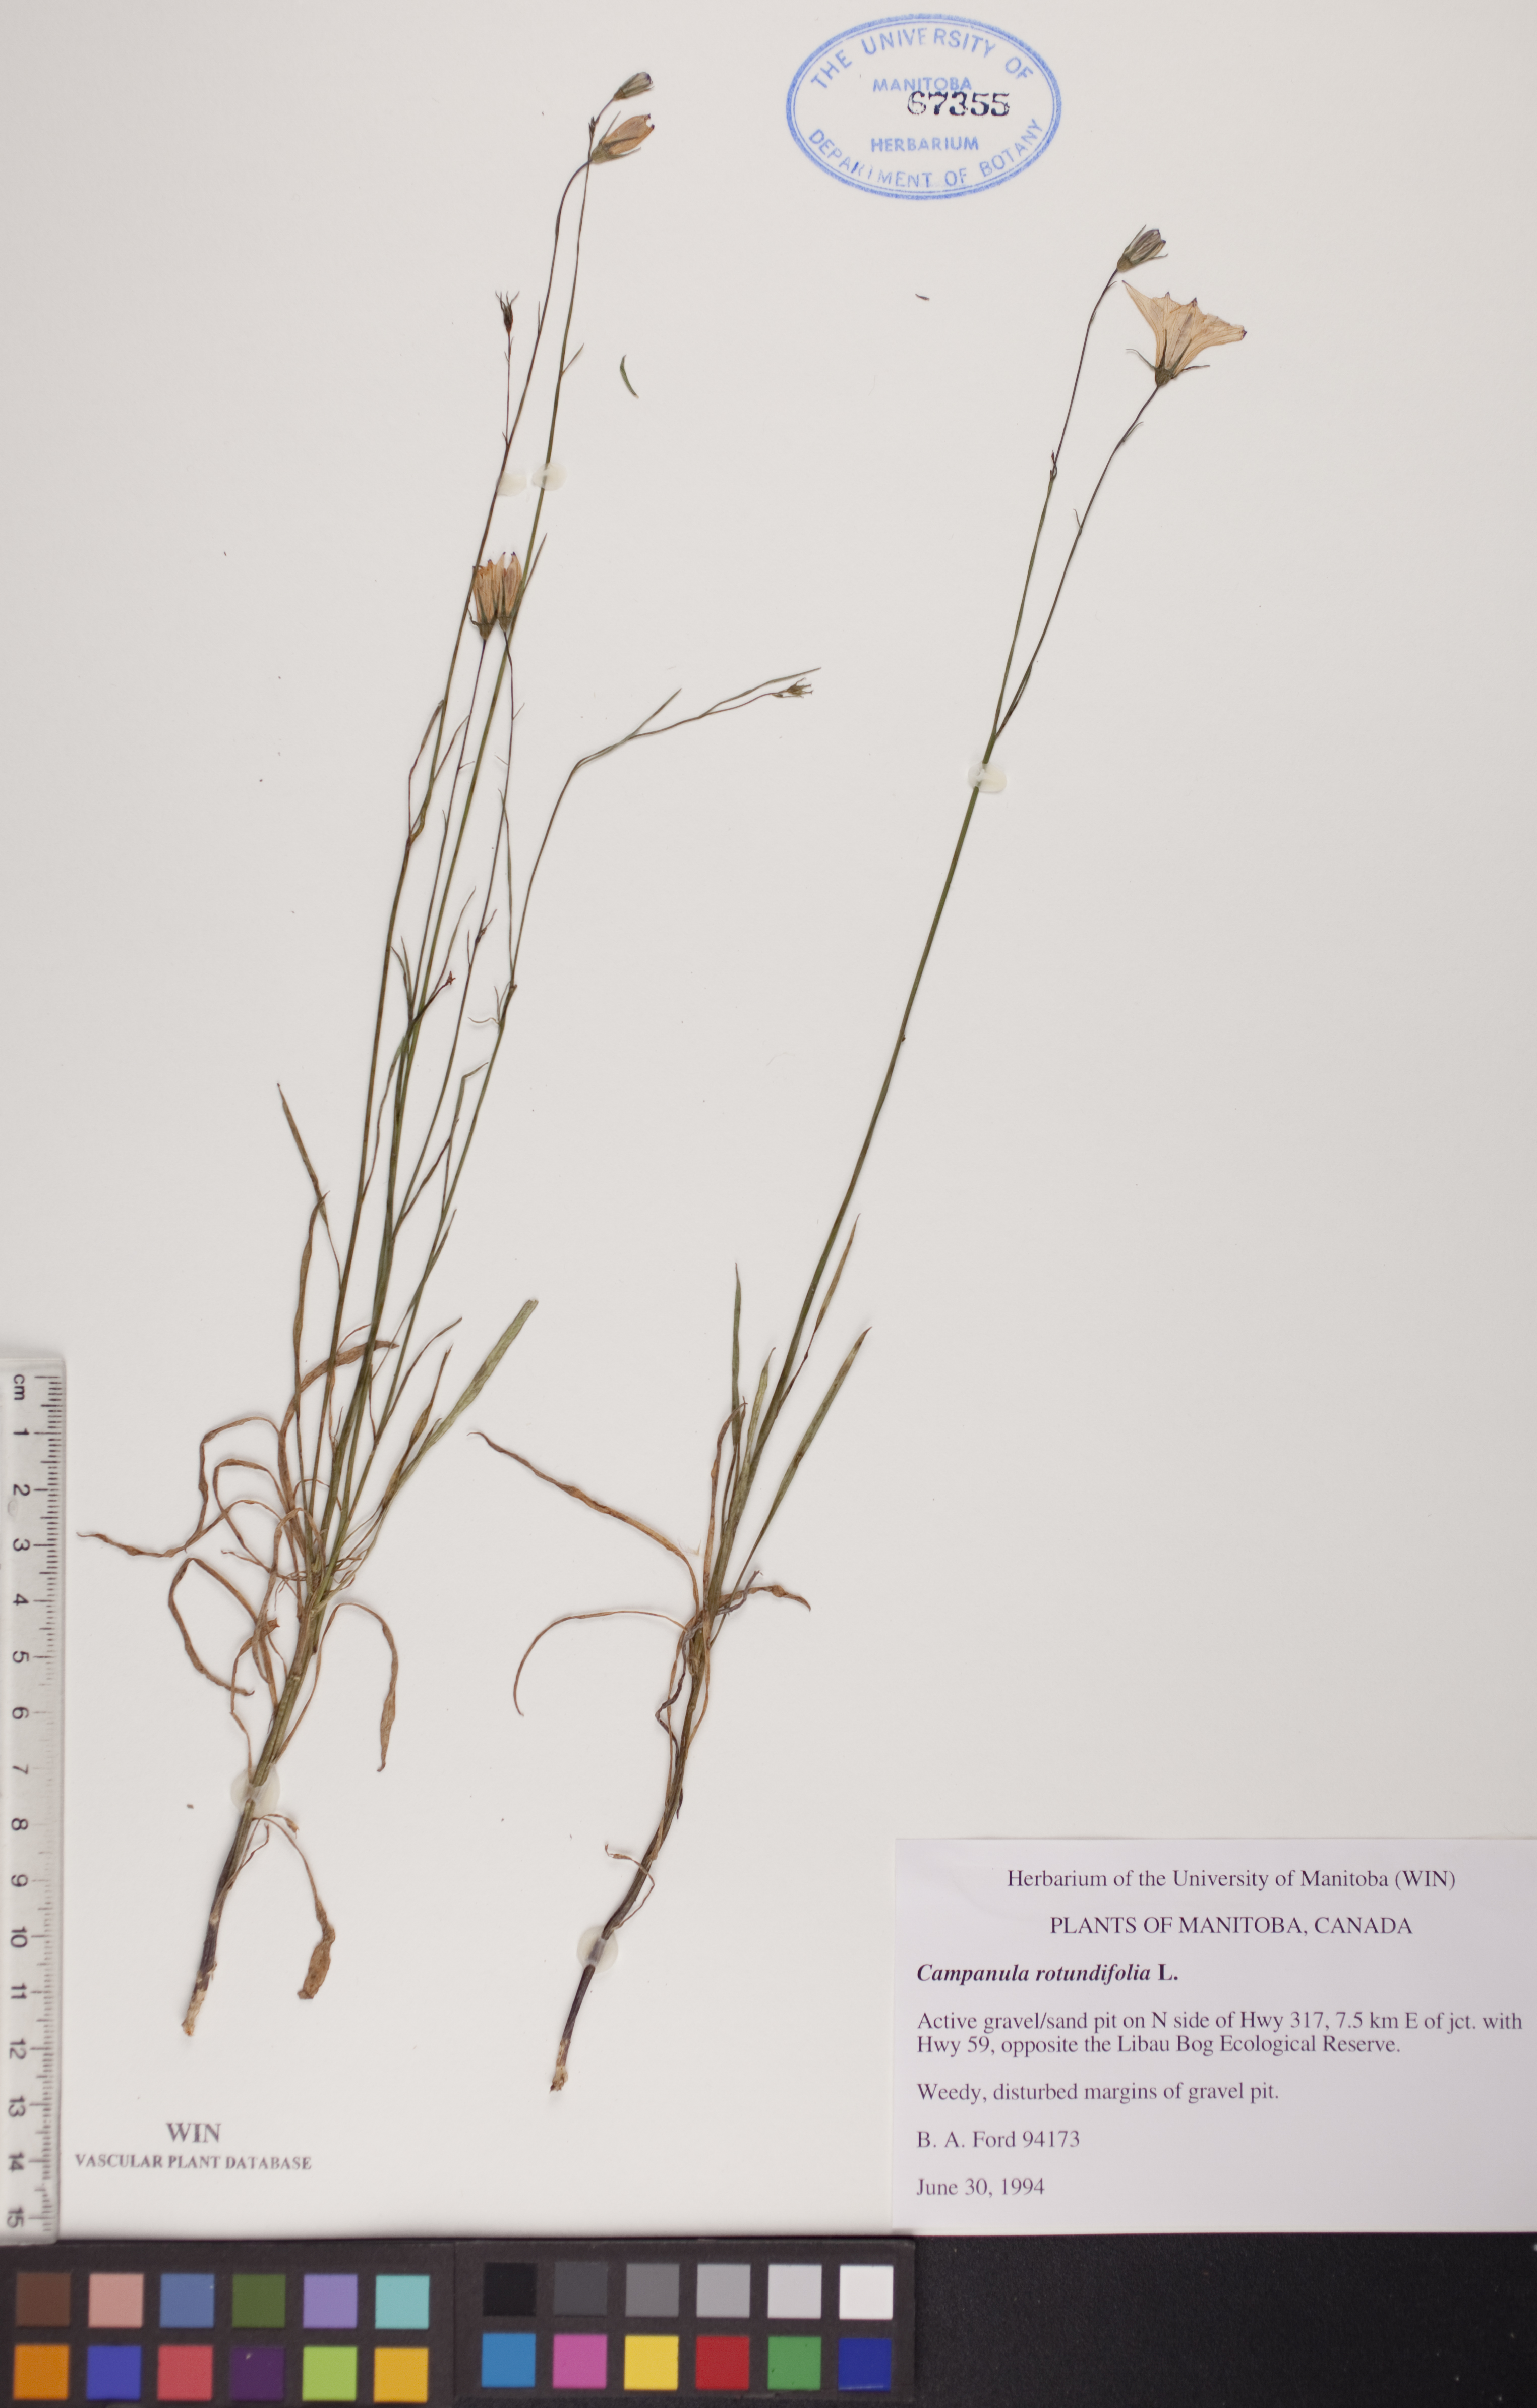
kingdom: Plantae
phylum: Tracheophyta
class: Magnoliopsida
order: Asterales
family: Campanulaceae
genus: Campanula
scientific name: Campanula rotundifolia
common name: Harebell
